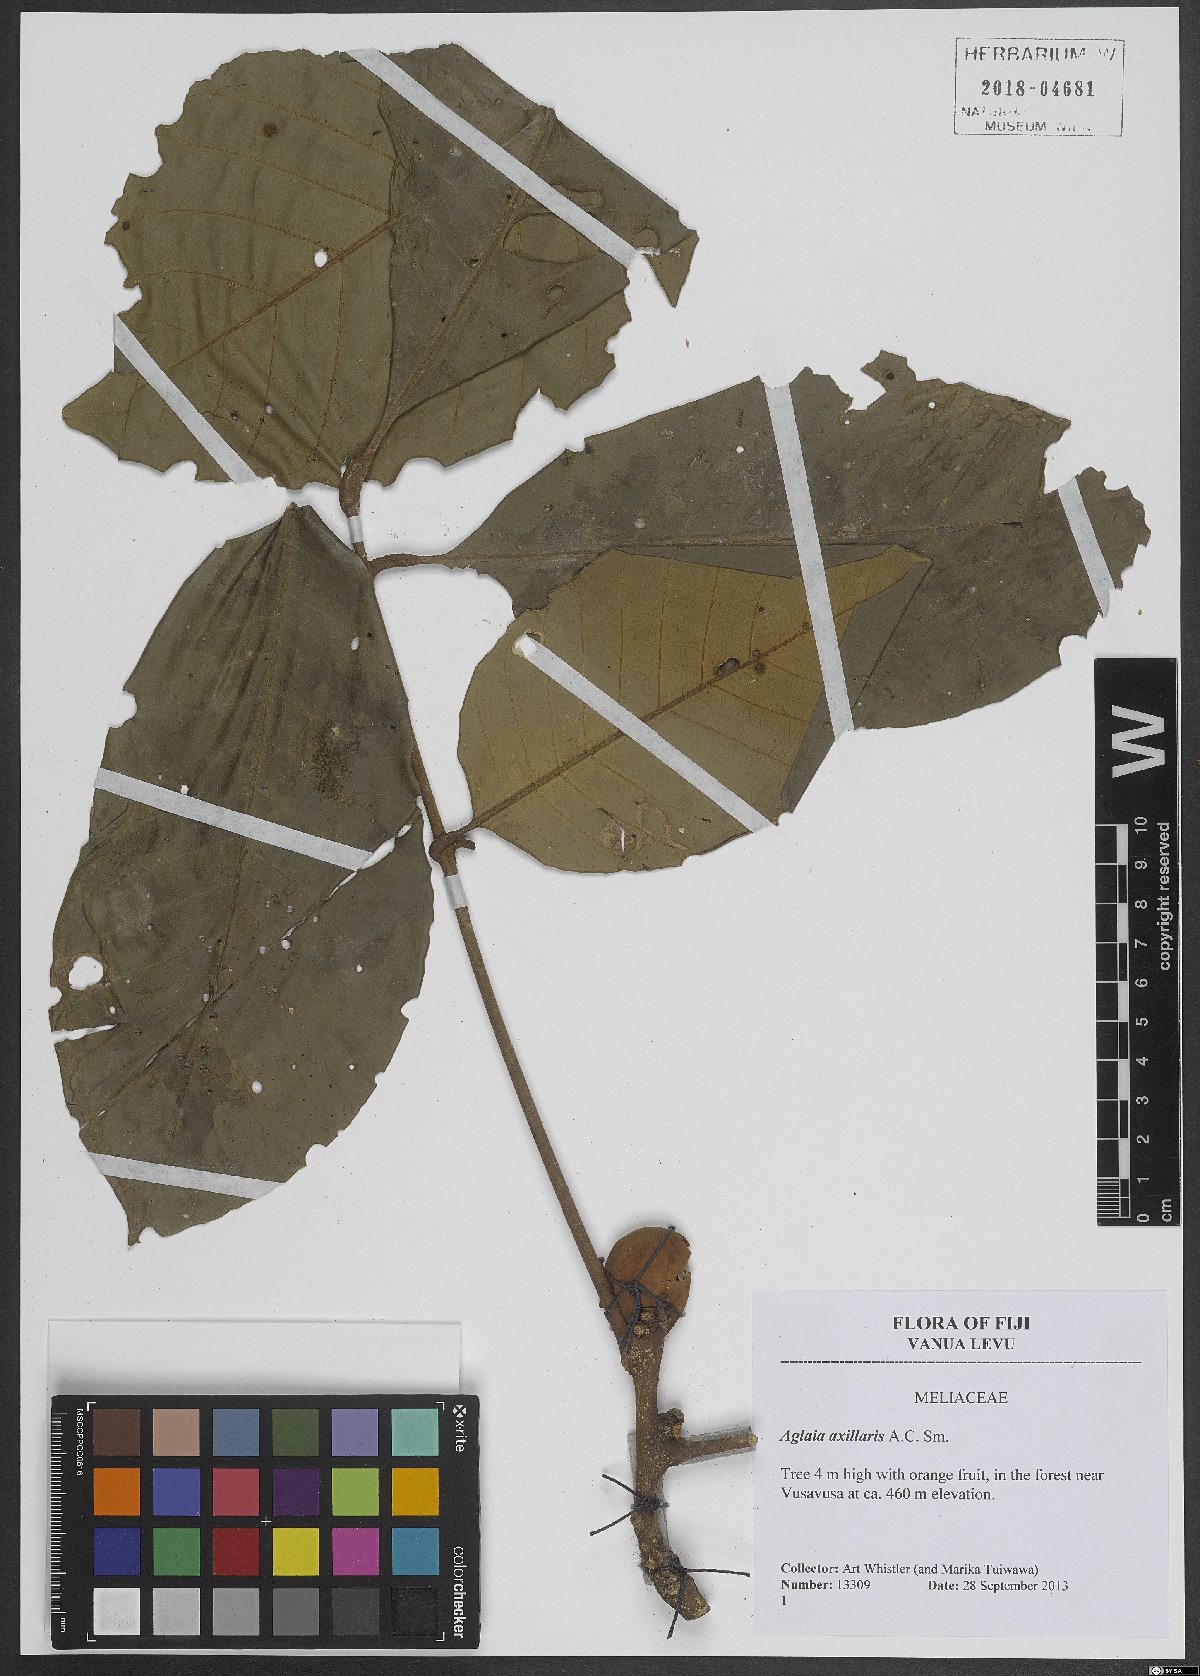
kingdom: Plantae
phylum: Tracheophyta
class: Magnoliopsida
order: Sapindales
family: Meliaceae
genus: Aglaia
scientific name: Aglaia vitiensis
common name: Lindiyango
